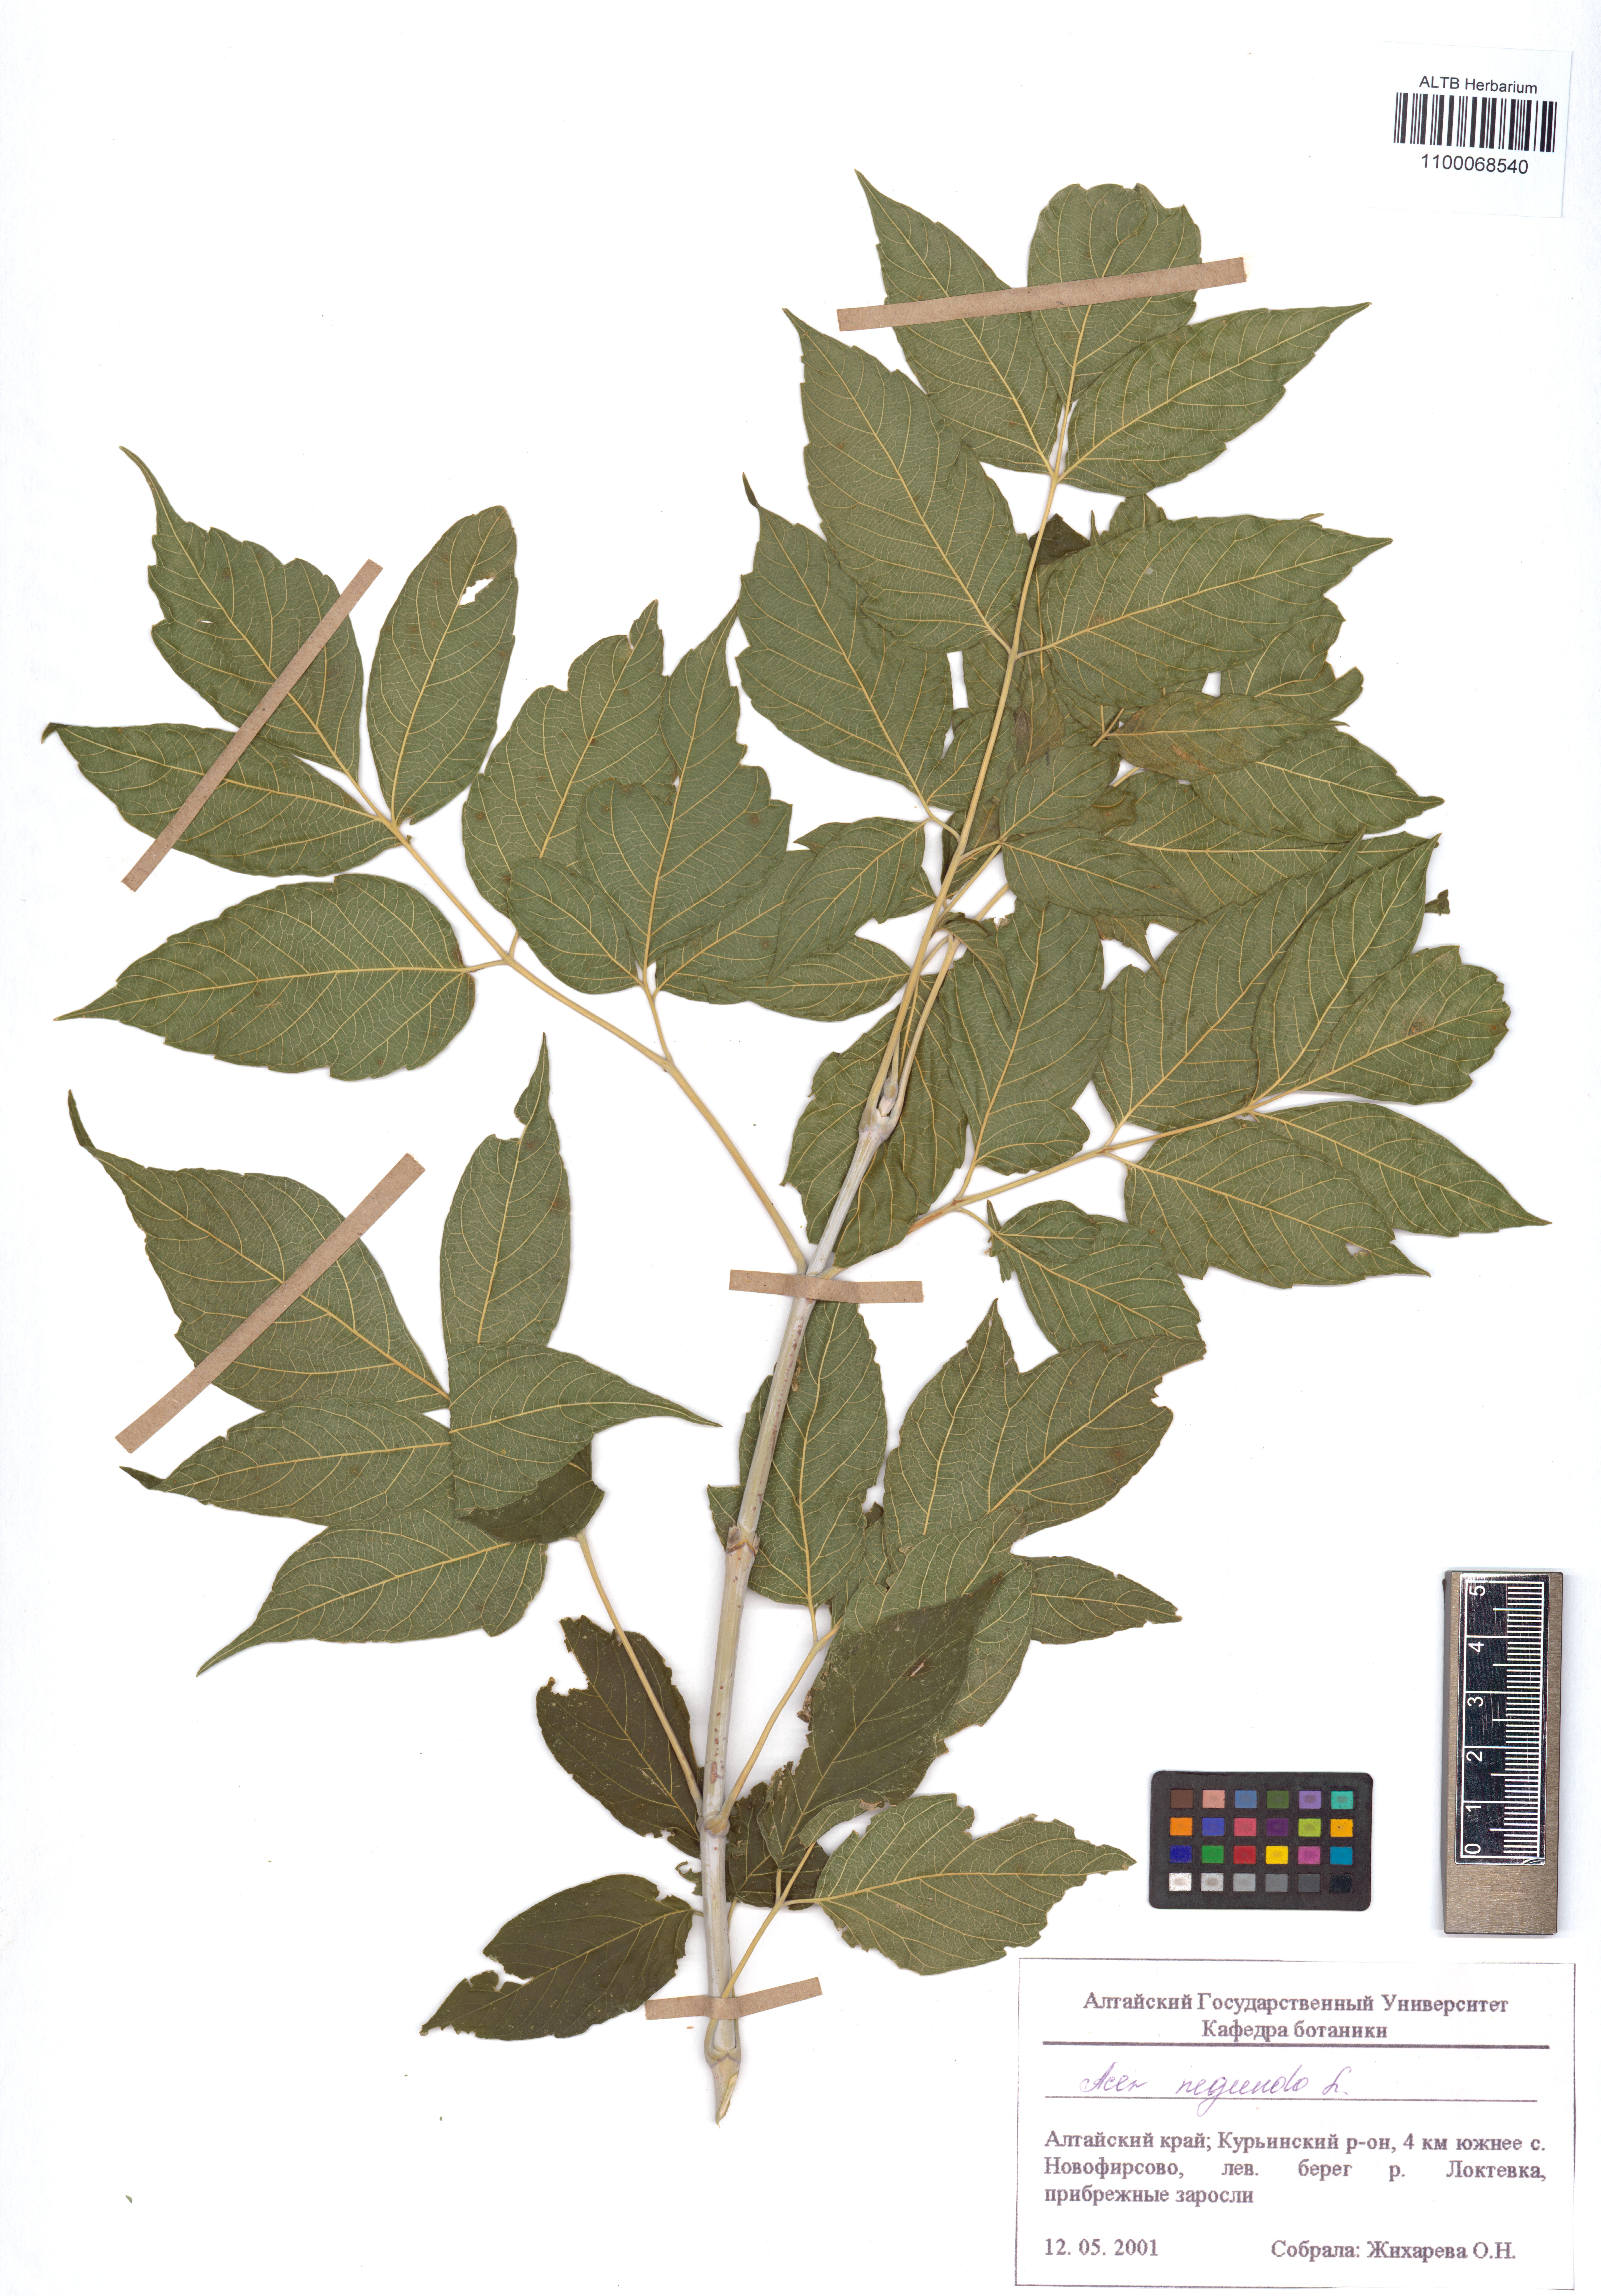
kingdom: Plantae
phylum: Tracheophyta
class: Magnoliopsida
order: Sapindales
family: Sapindaceae
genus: Acer
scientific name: Acer negundo
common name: Ashleaf maple
